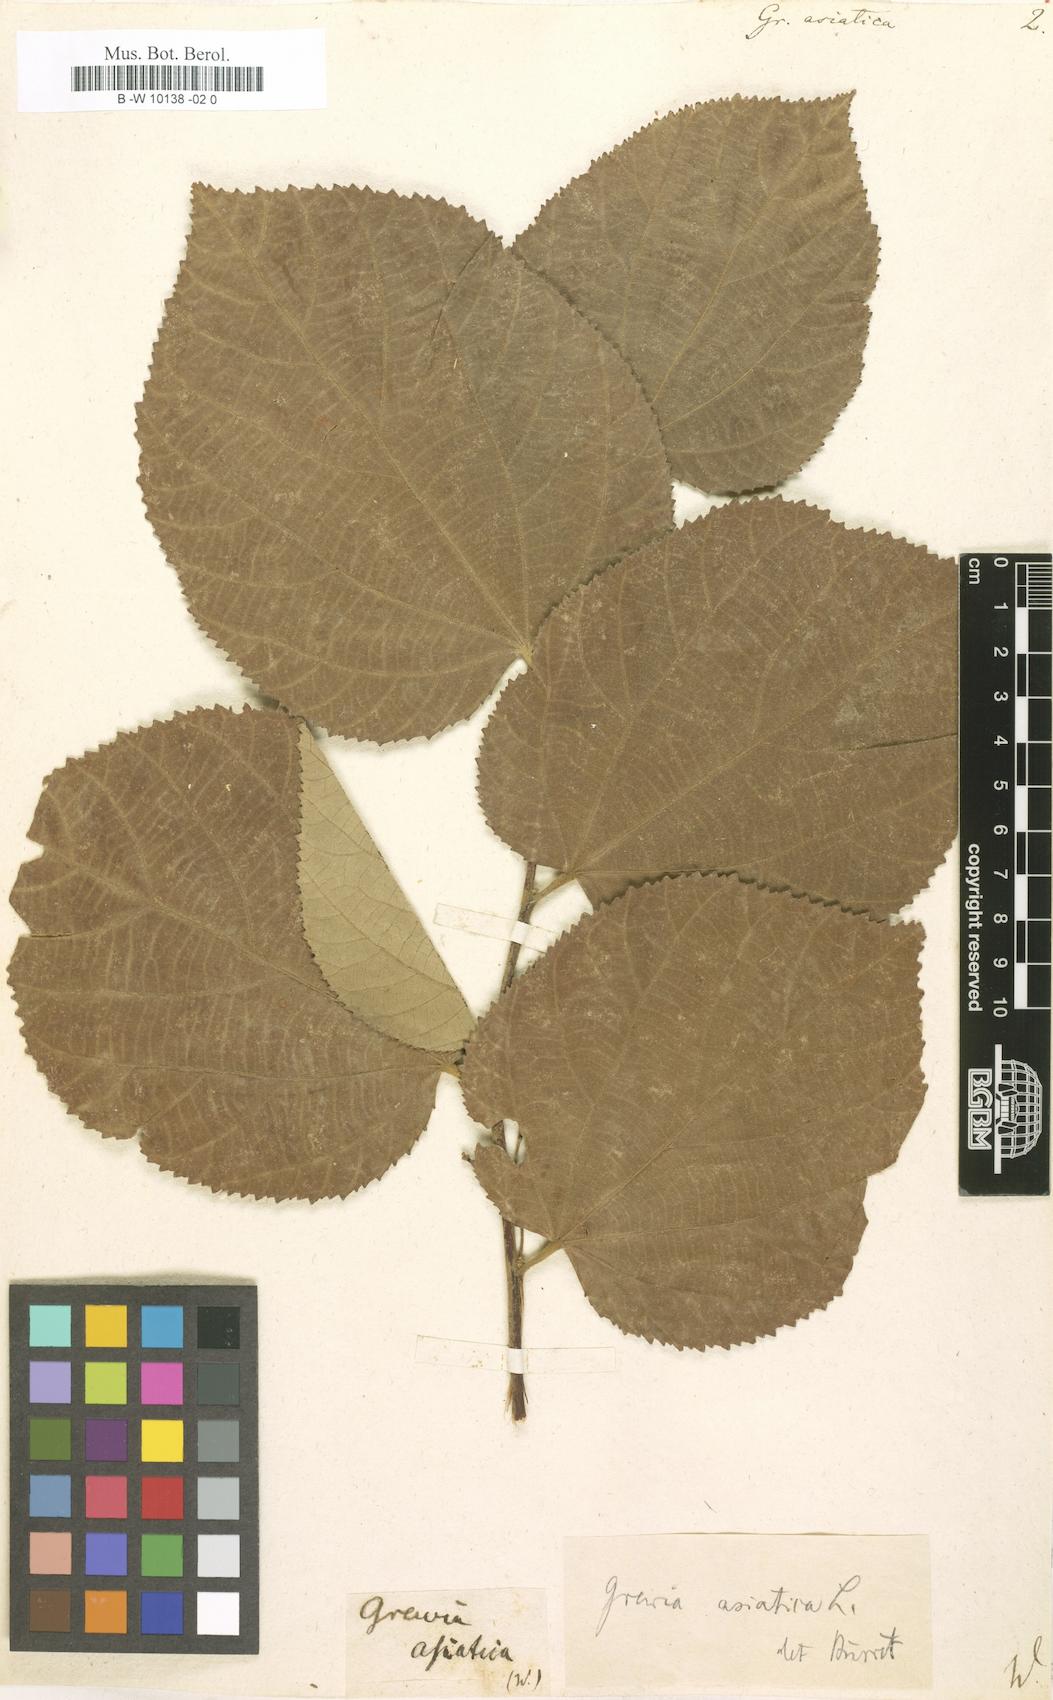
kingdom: Plantae
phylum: Tracheophyta
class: Magnoliopsida
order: Malvales
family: Malvaceae
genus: Grewia
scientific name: Grewia asiatica
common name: Phalsa
